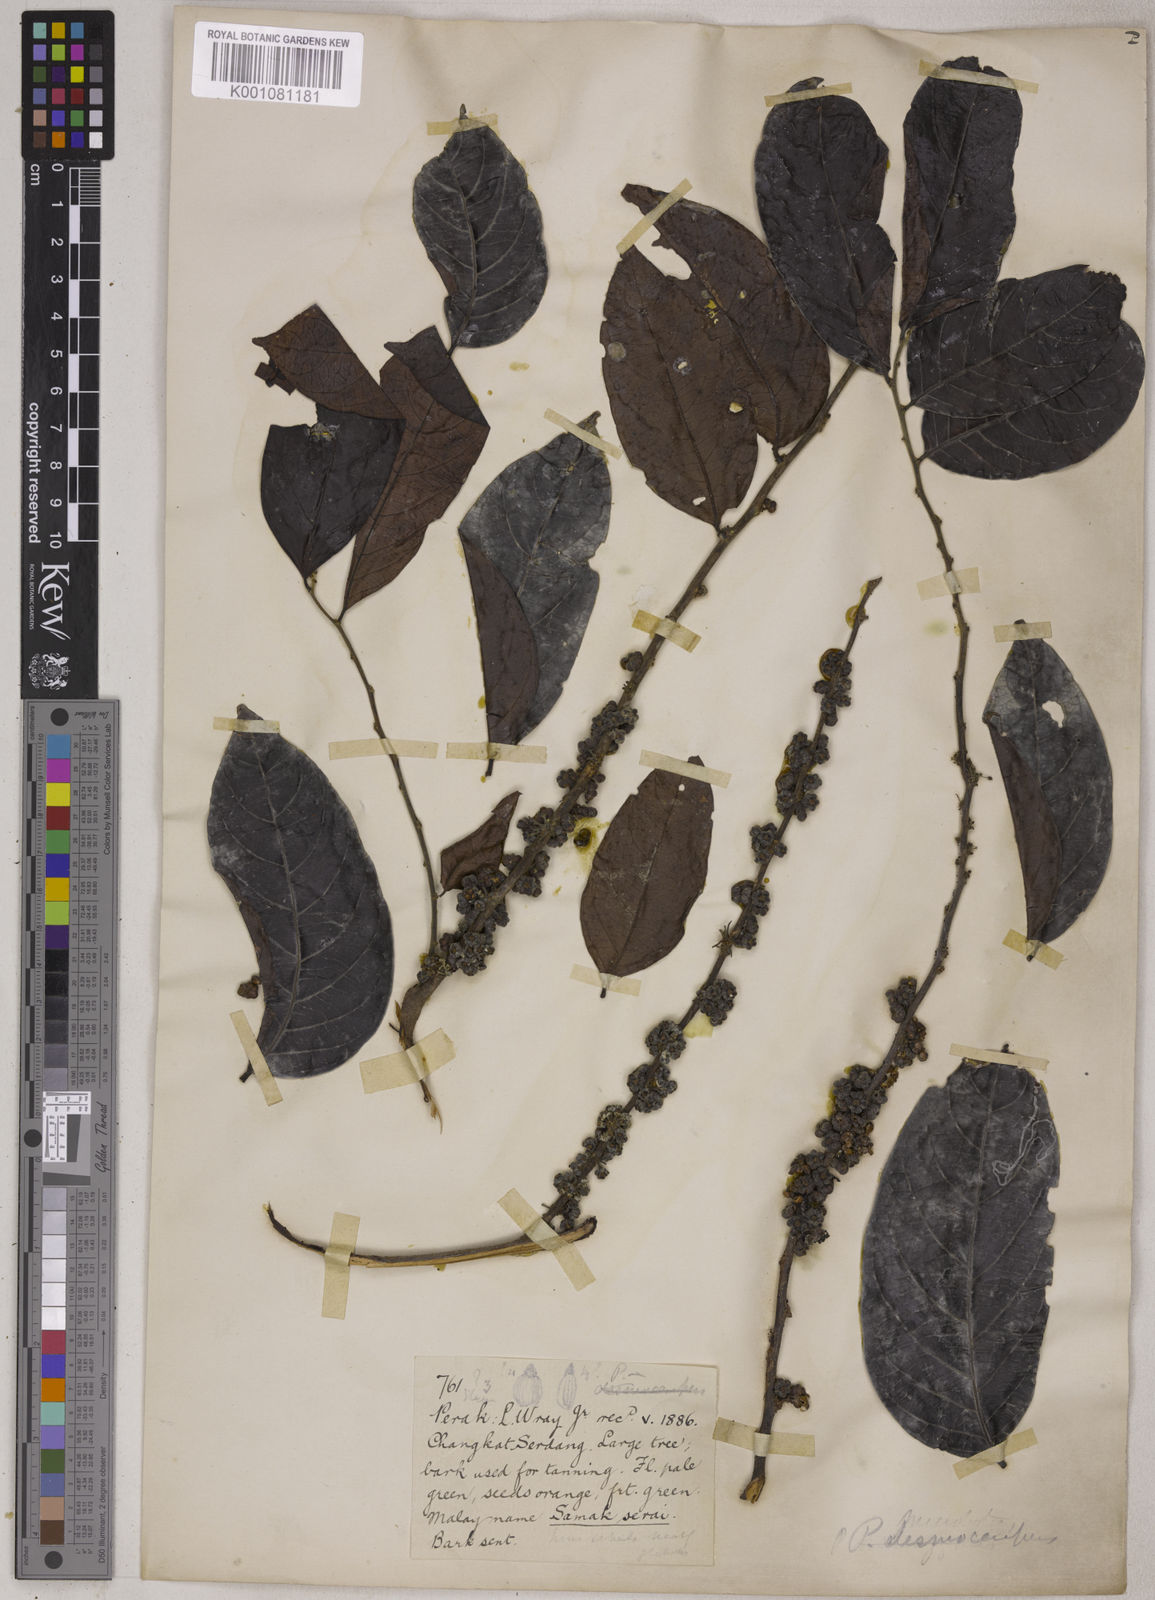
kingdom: Plantae
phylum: Tracheophyta
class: Magnoliopsida
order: Malpighiales
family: Phyllanthaceae
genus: Glochidion
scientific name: Glochidion glomerulatum
